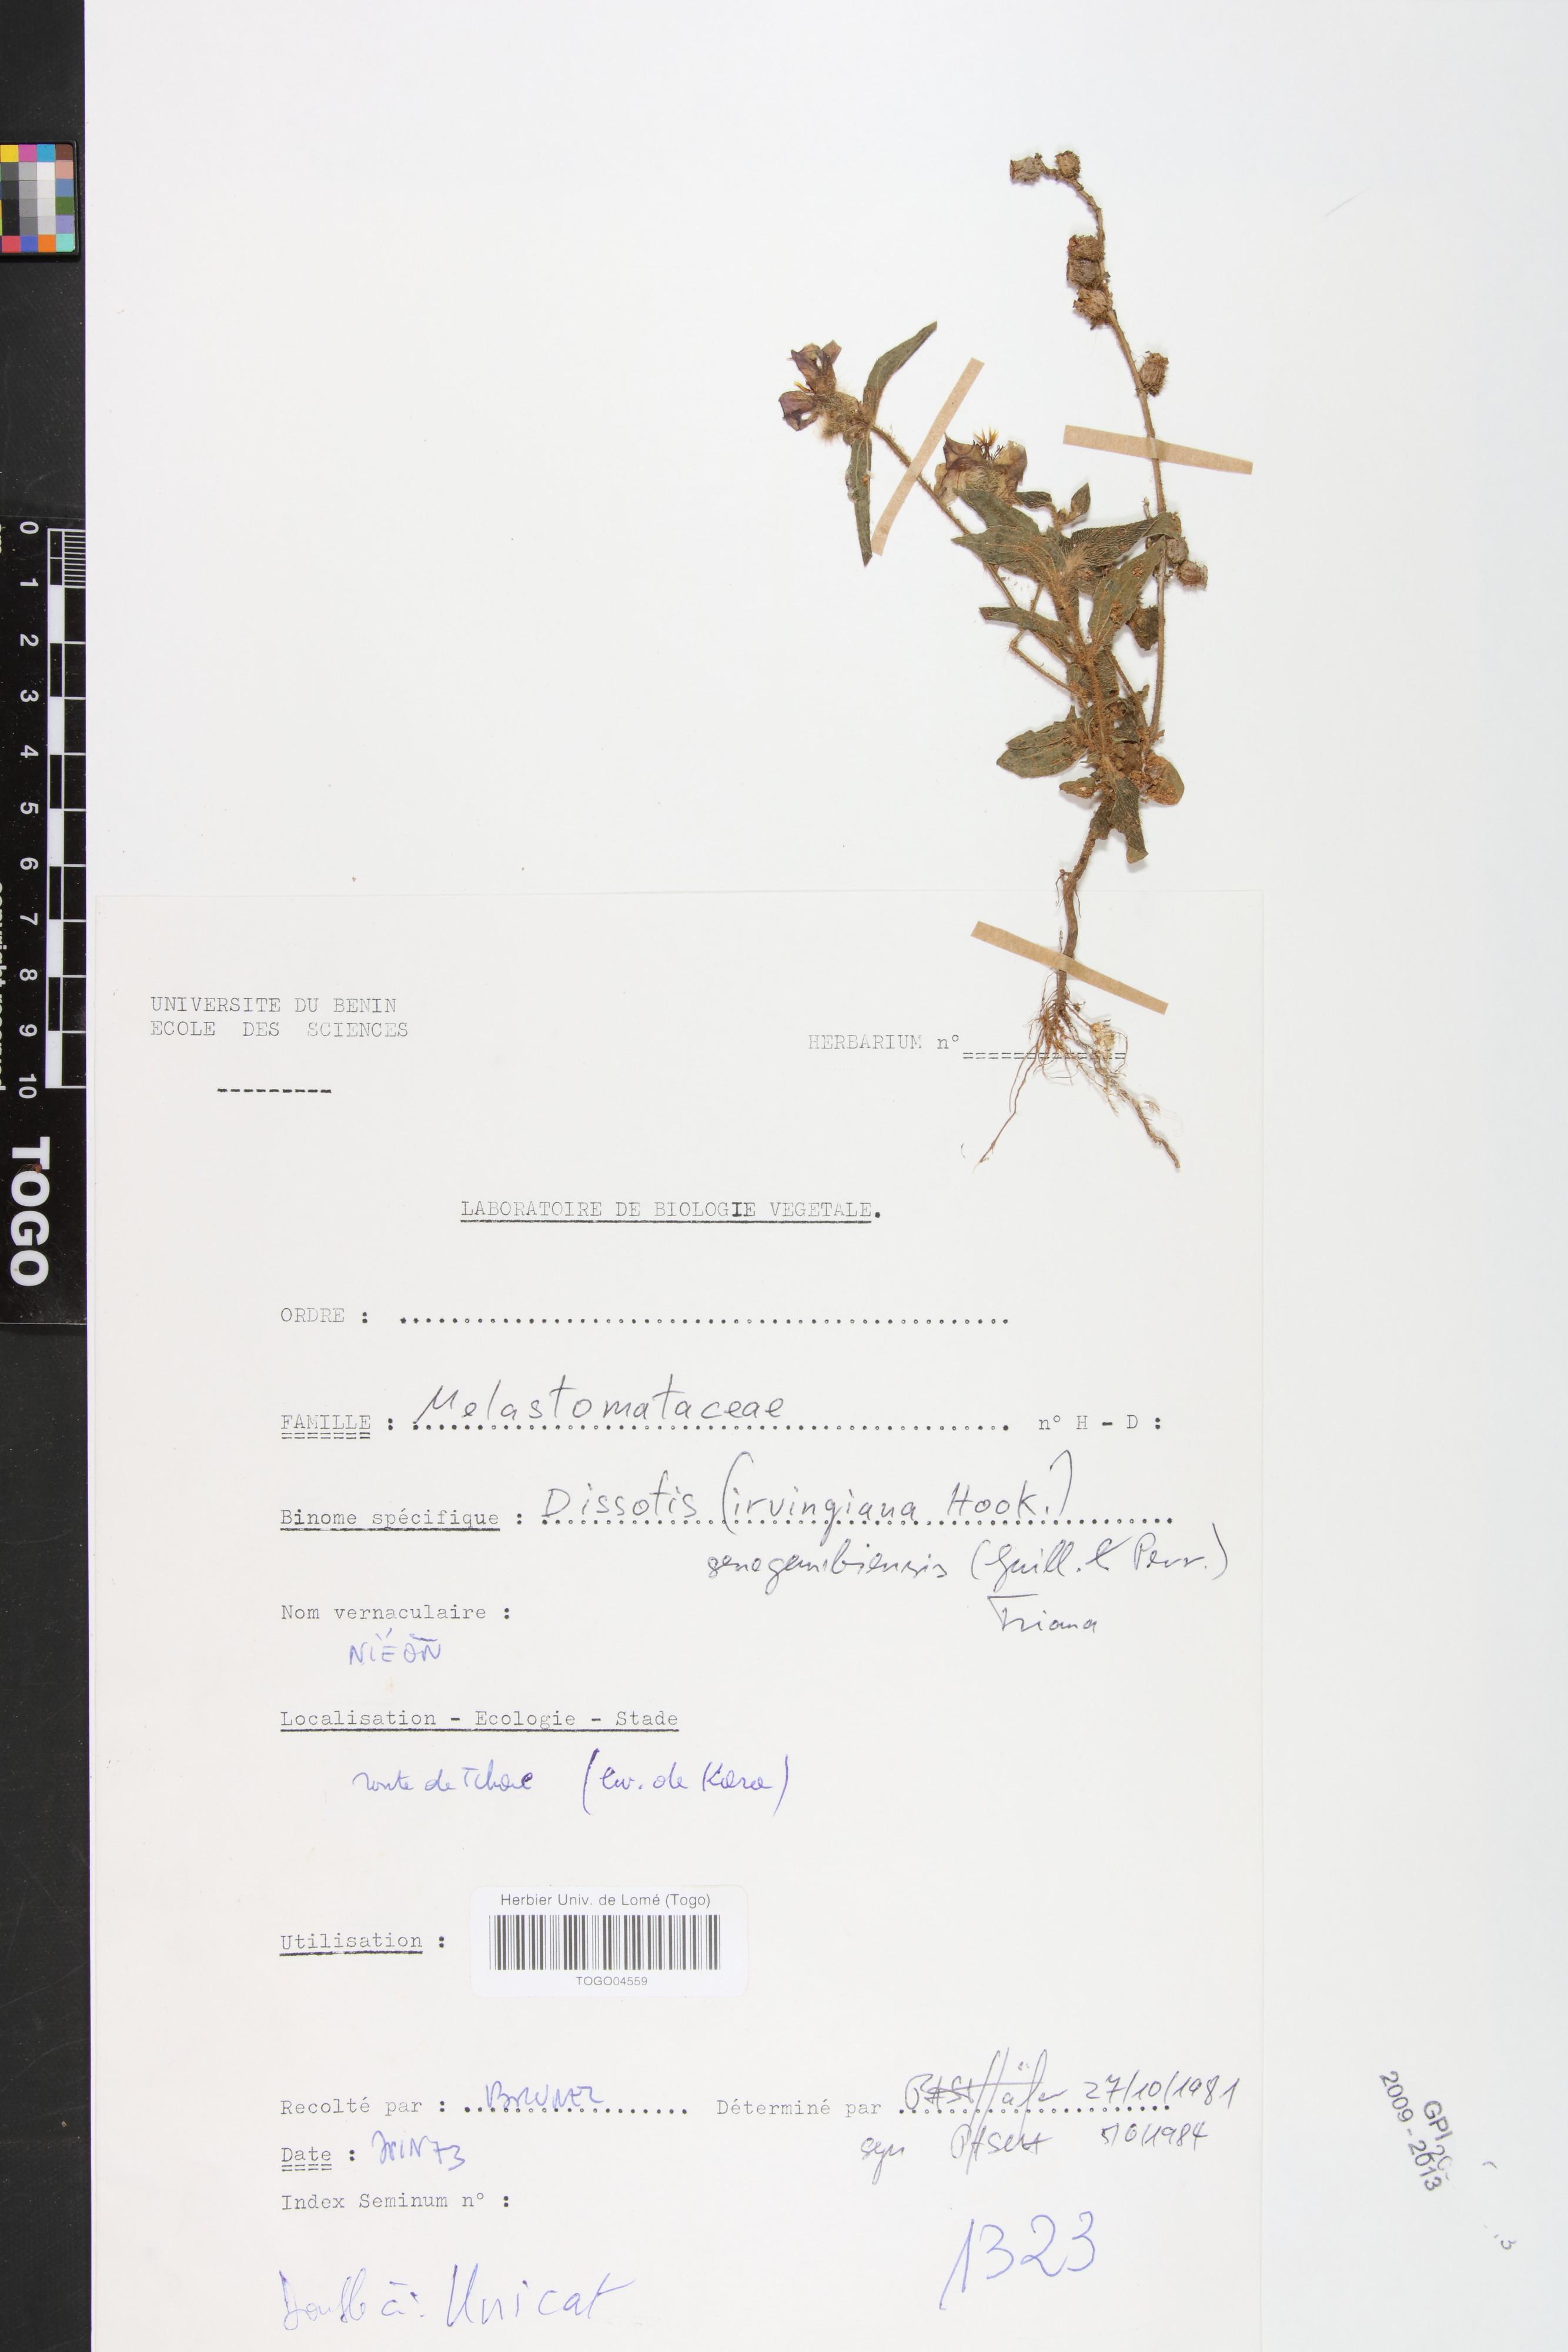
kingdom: Plantae
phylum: Tracheophyta
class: Magnoliopsida
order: Myrtales
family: Melastomataceae
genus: Antherotoma
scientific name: Antherotoma irvingiana
